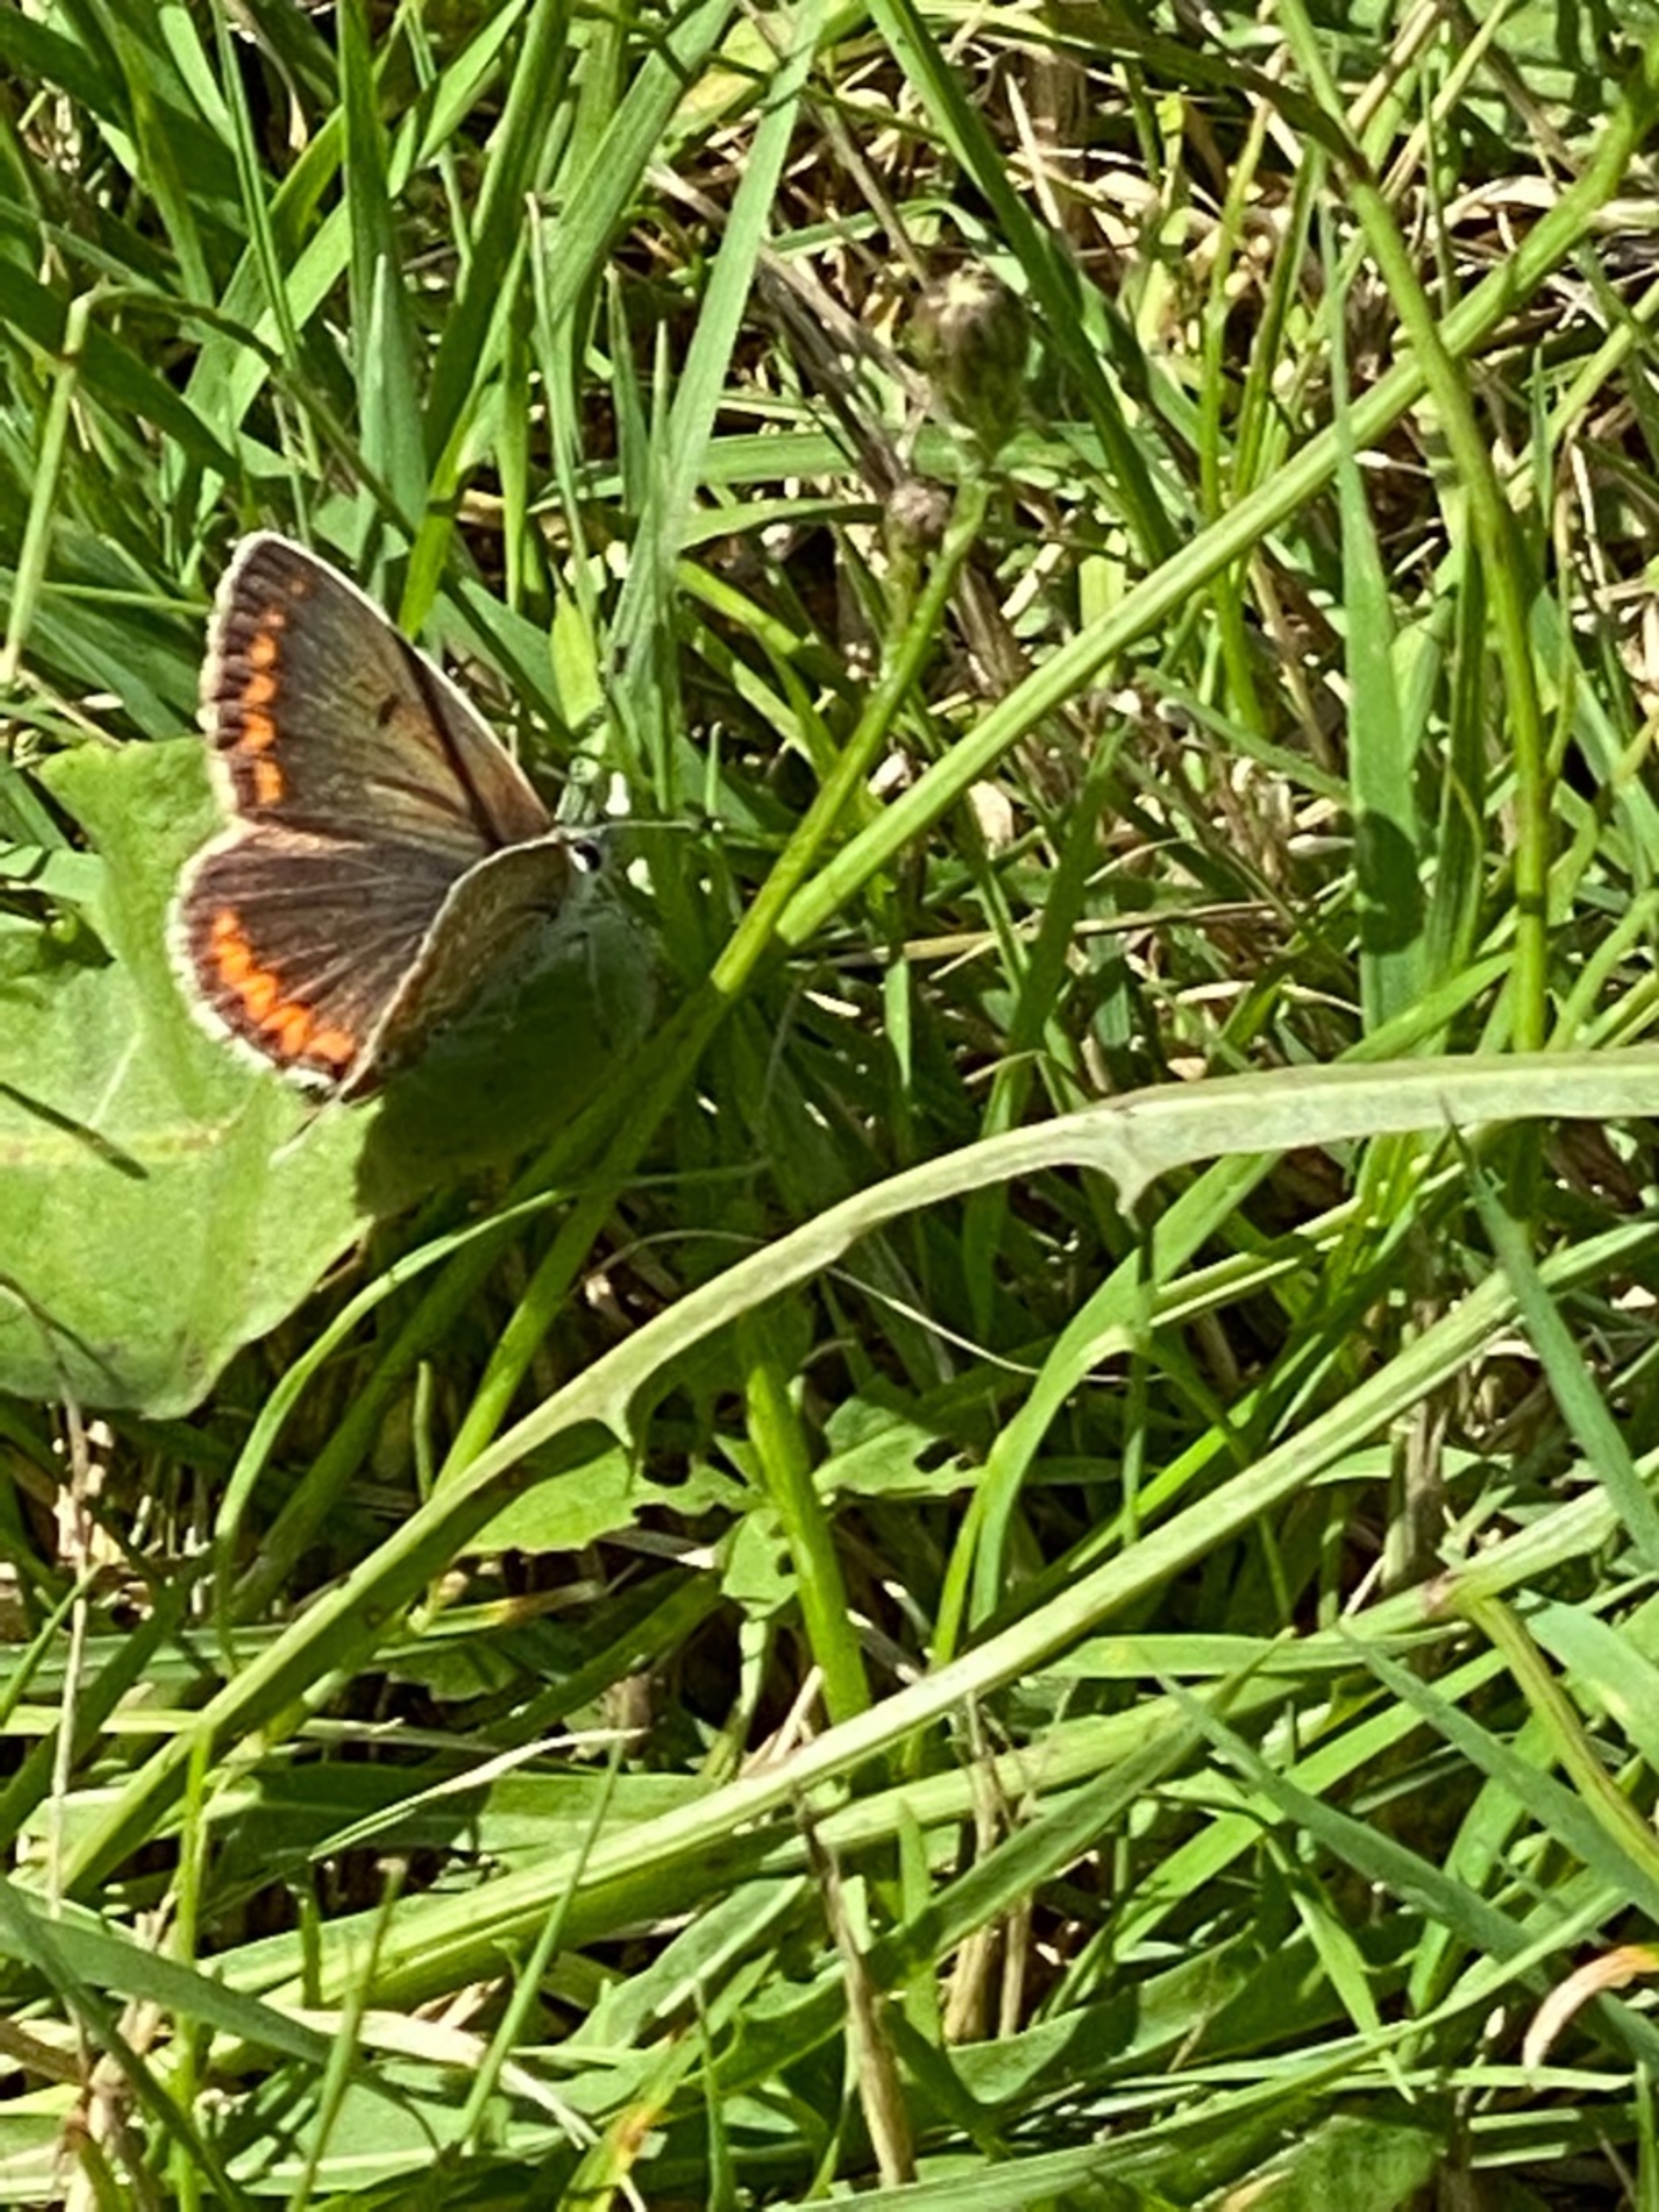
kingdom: Animalia
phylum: Arthropoda
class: Insecta
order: Lepidoptera
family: Lycaenidae
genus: Aricia
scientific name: Aricia agestis
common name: Rødplettet blåfugl
